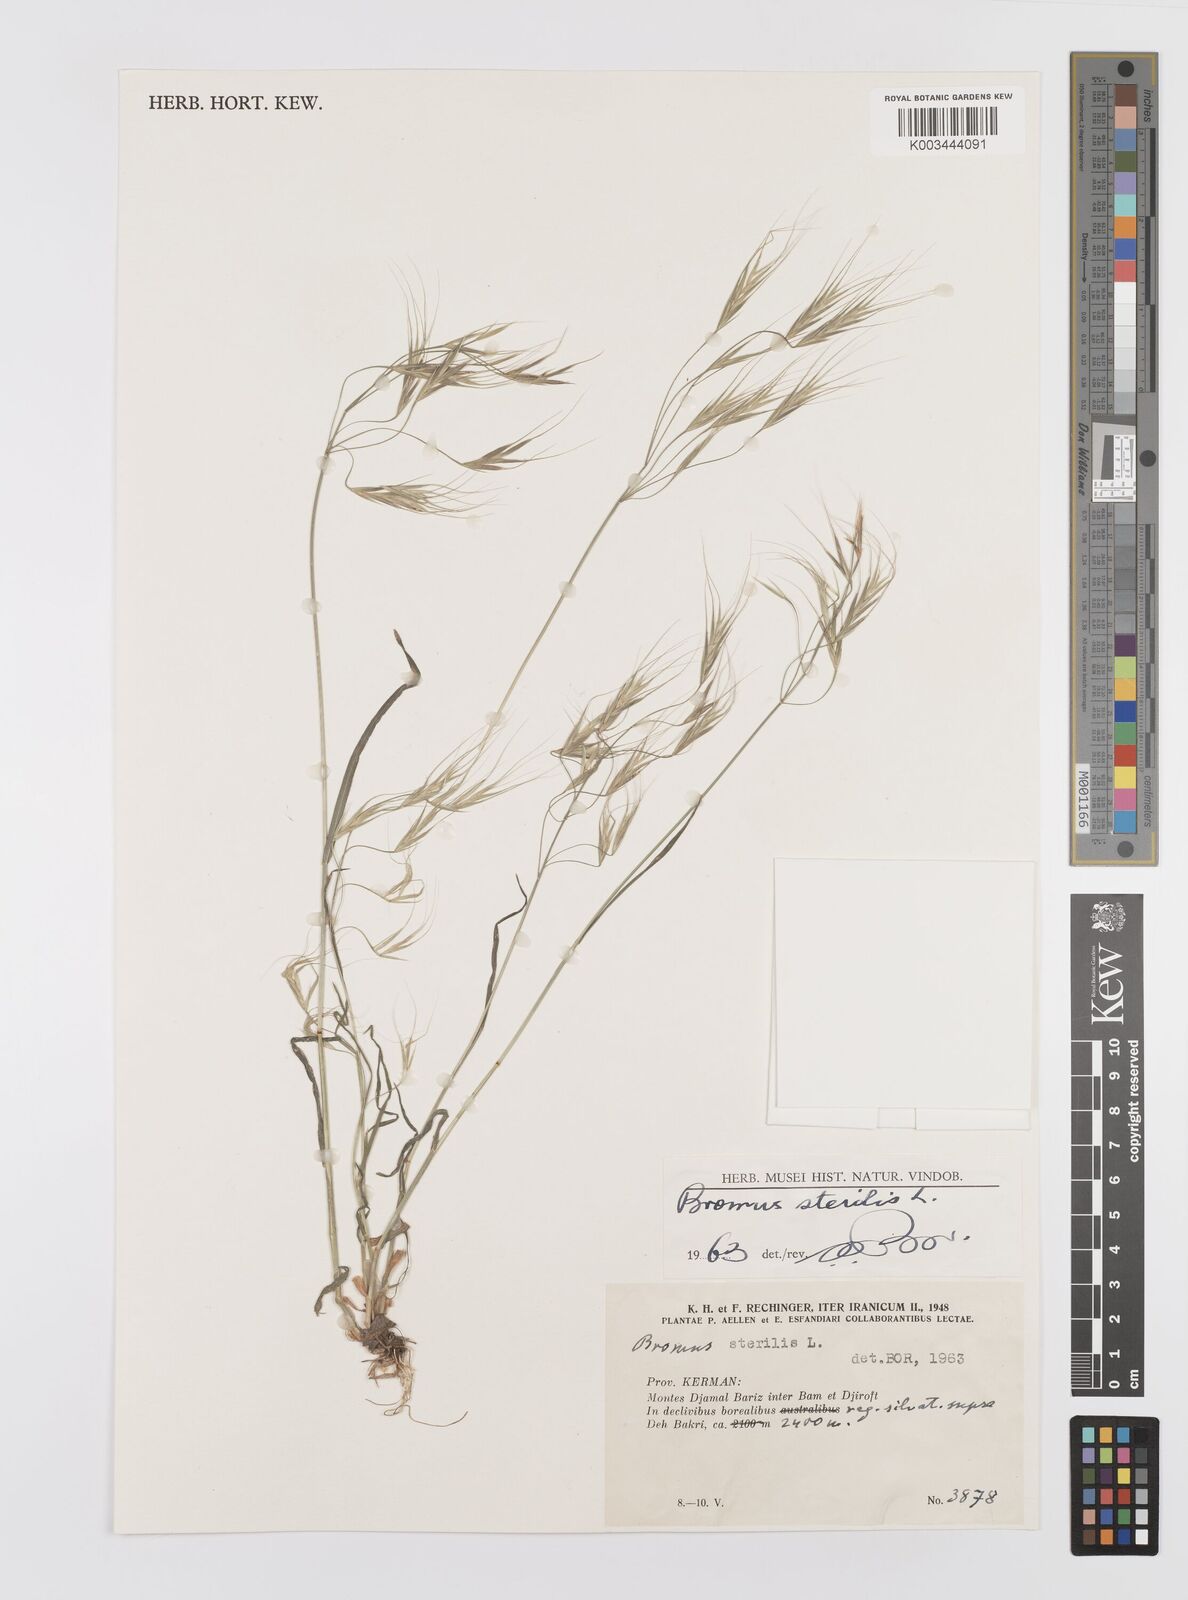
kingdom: Plantae
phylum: Tracheophyta
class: Liliopsida
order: Poales
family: Poaceae
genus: Bromus
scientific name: Bromus sterilis
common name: Poverty brome
